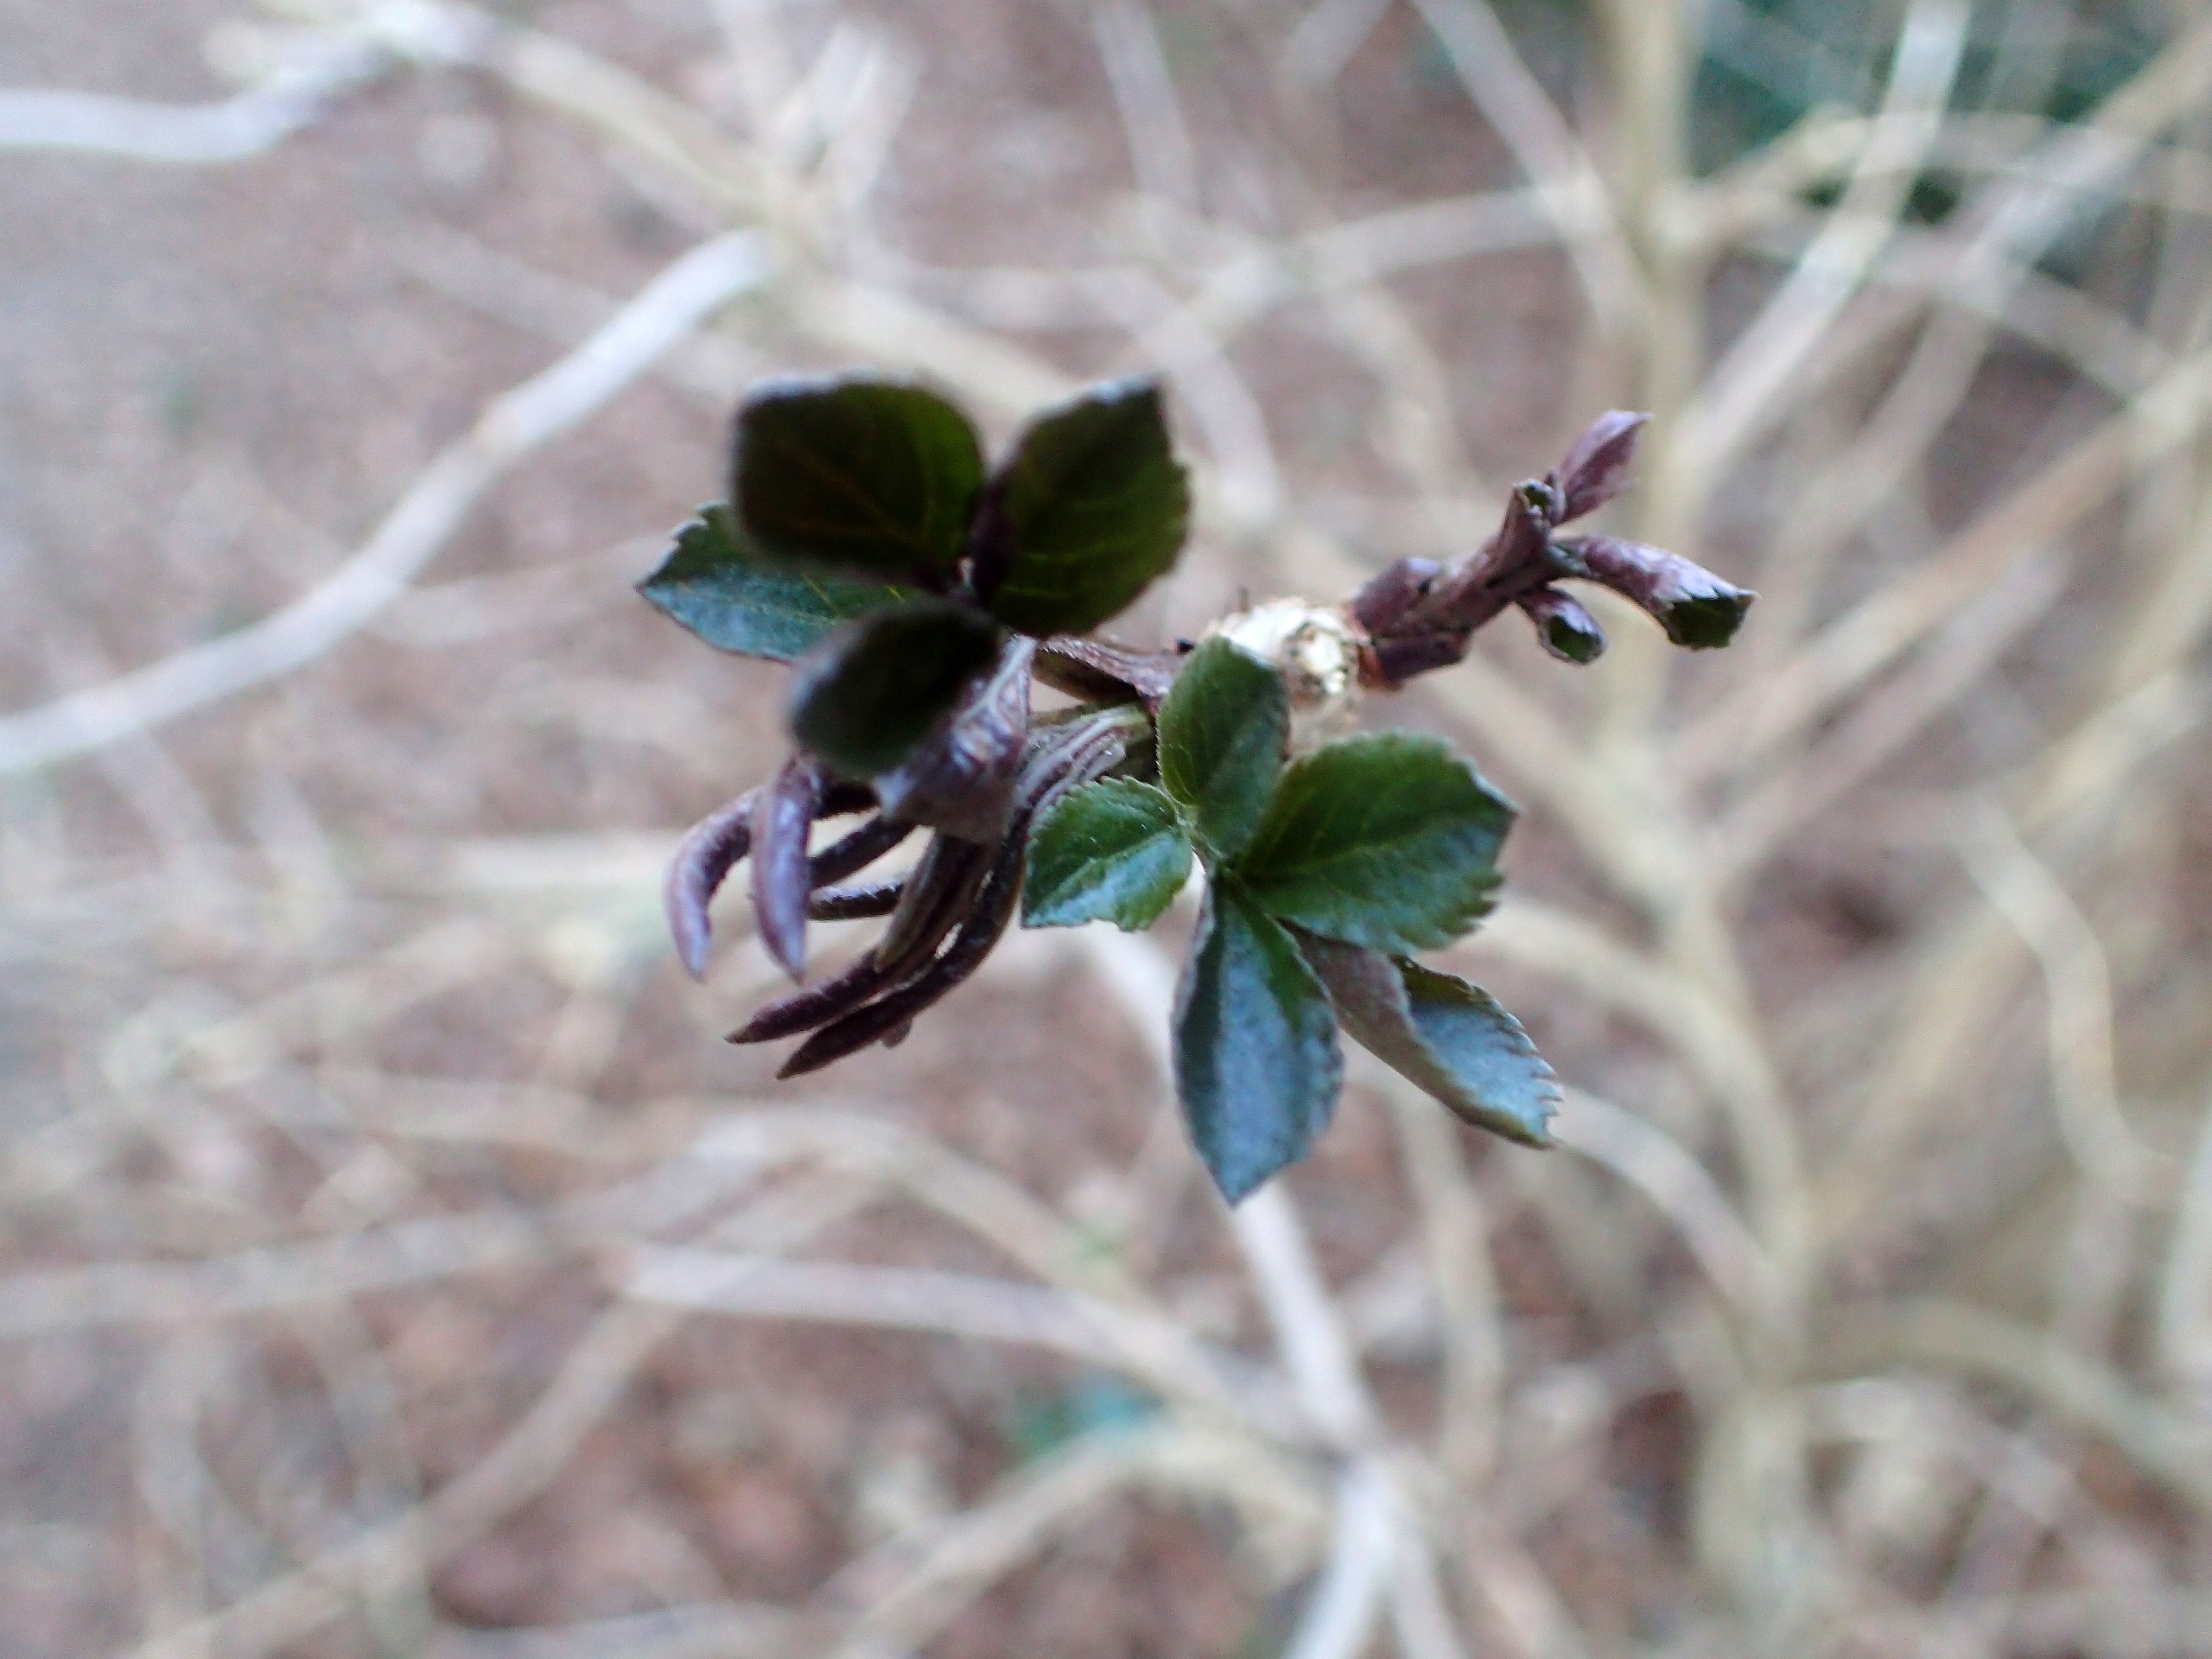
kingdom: Plantae
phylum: Tracheophyta
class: Magnoliopsida
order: Dipsacales
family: Viburnaceae
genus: Sambucus
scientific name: Sambucus nigra
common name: Almindelig hyld
